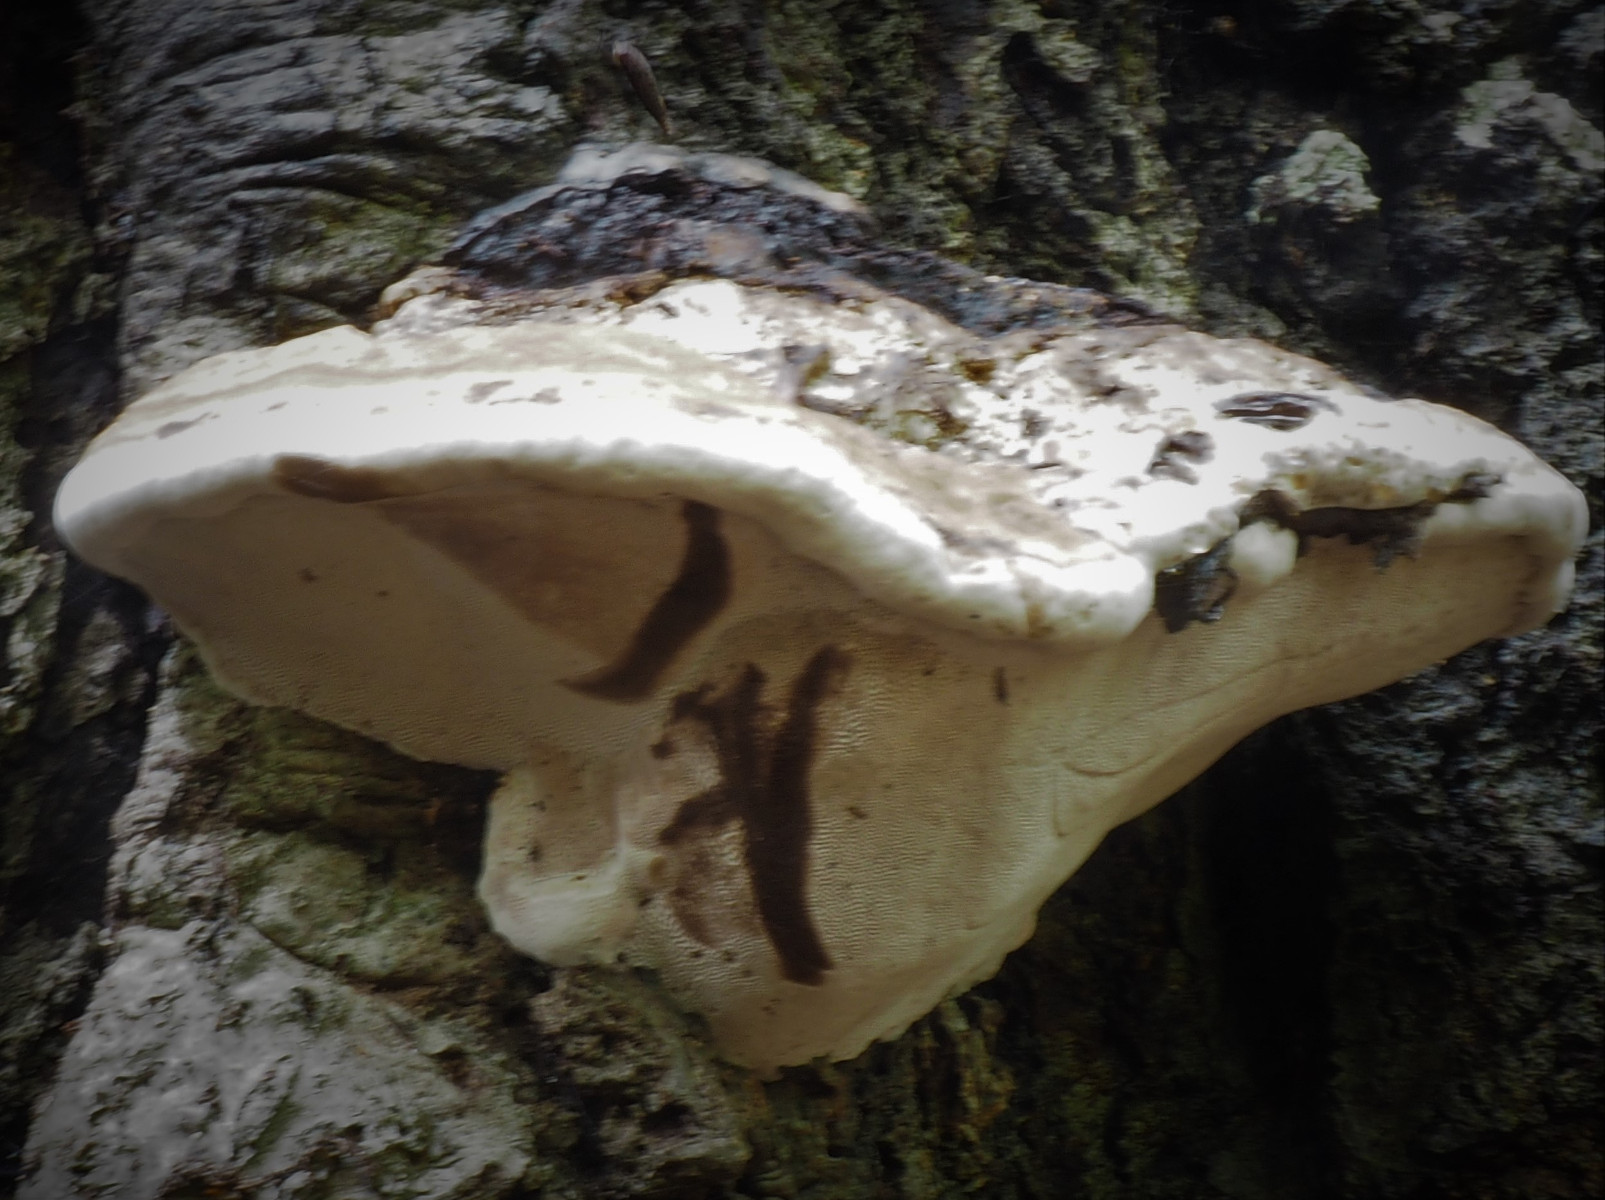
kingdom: Fungi
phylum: Basidiomycota
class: Agaricomycetes
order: Polyporales
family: Polyporaceae
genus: Fomes
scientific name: Fomes fomentarius
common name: tøndersvamp
